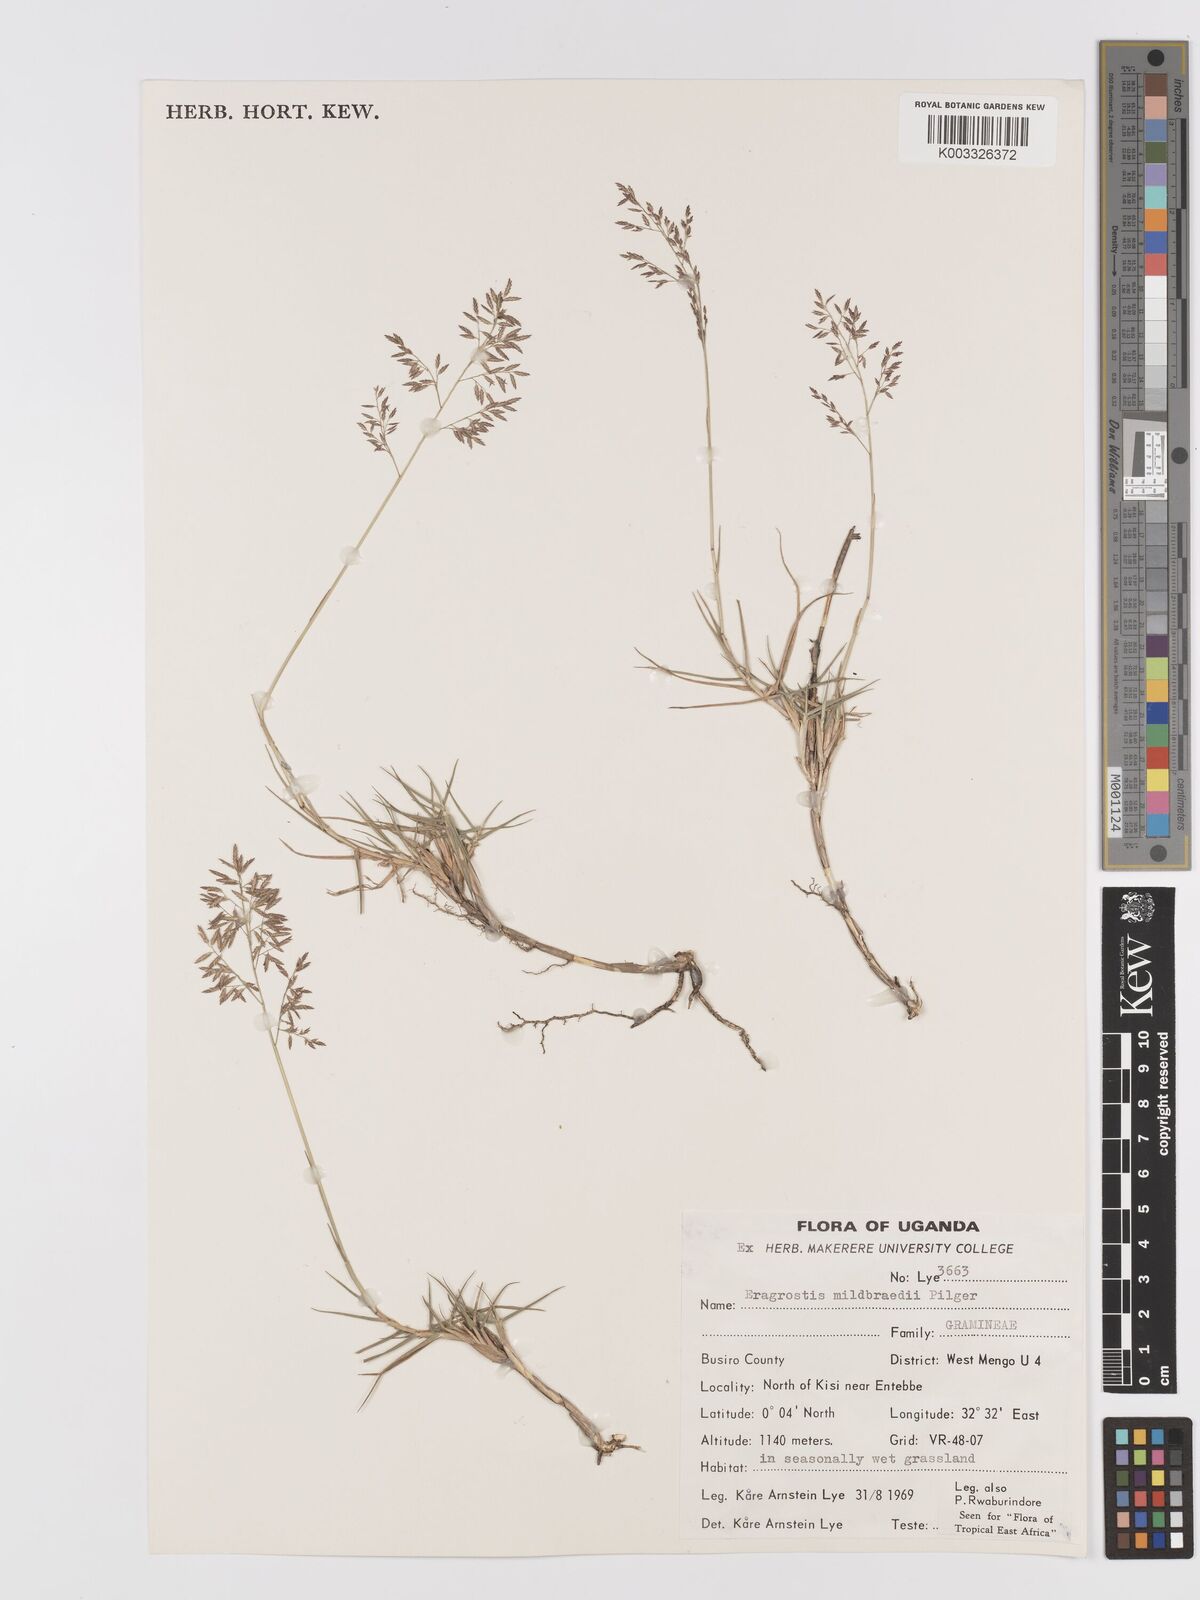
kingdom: Plantae
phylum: Tracheophyta
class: Liliopsida
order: Poales
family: Poaceae
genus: Eragrostis
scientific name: Eragrostis mildbraedii
